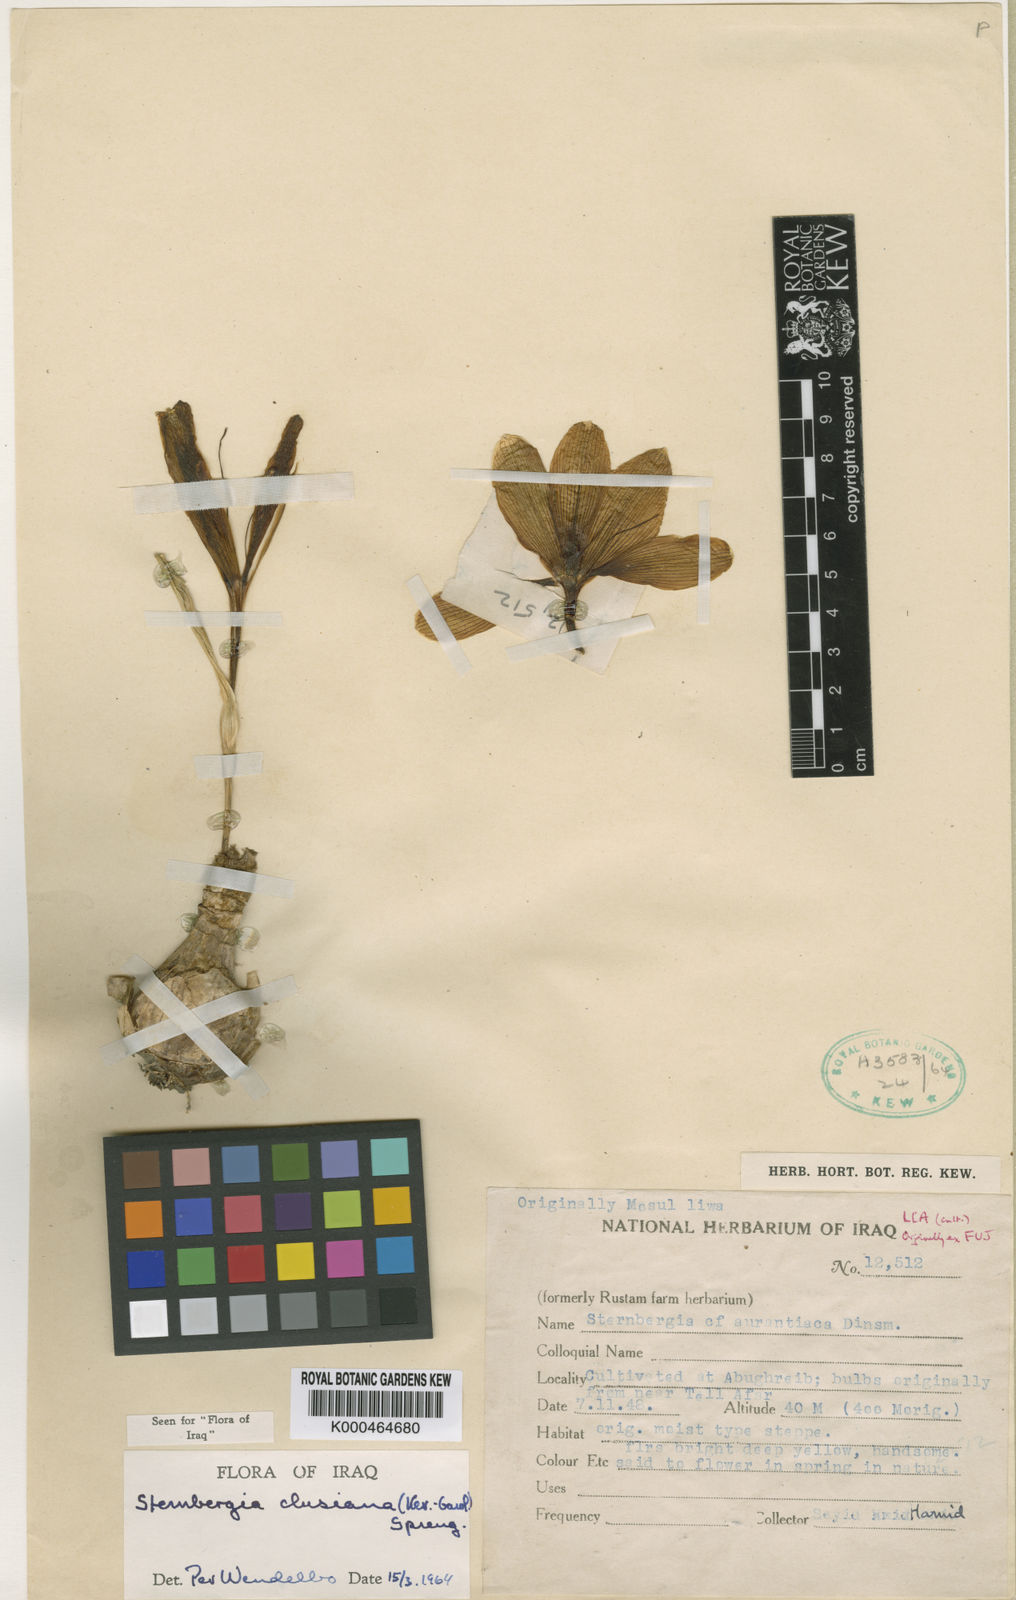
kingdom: Plantae
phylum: Tracheophyta
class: Liliopsida
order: Asparagales
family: Amaryllidaceae
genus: Sternbergia
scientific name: Sternbergia
